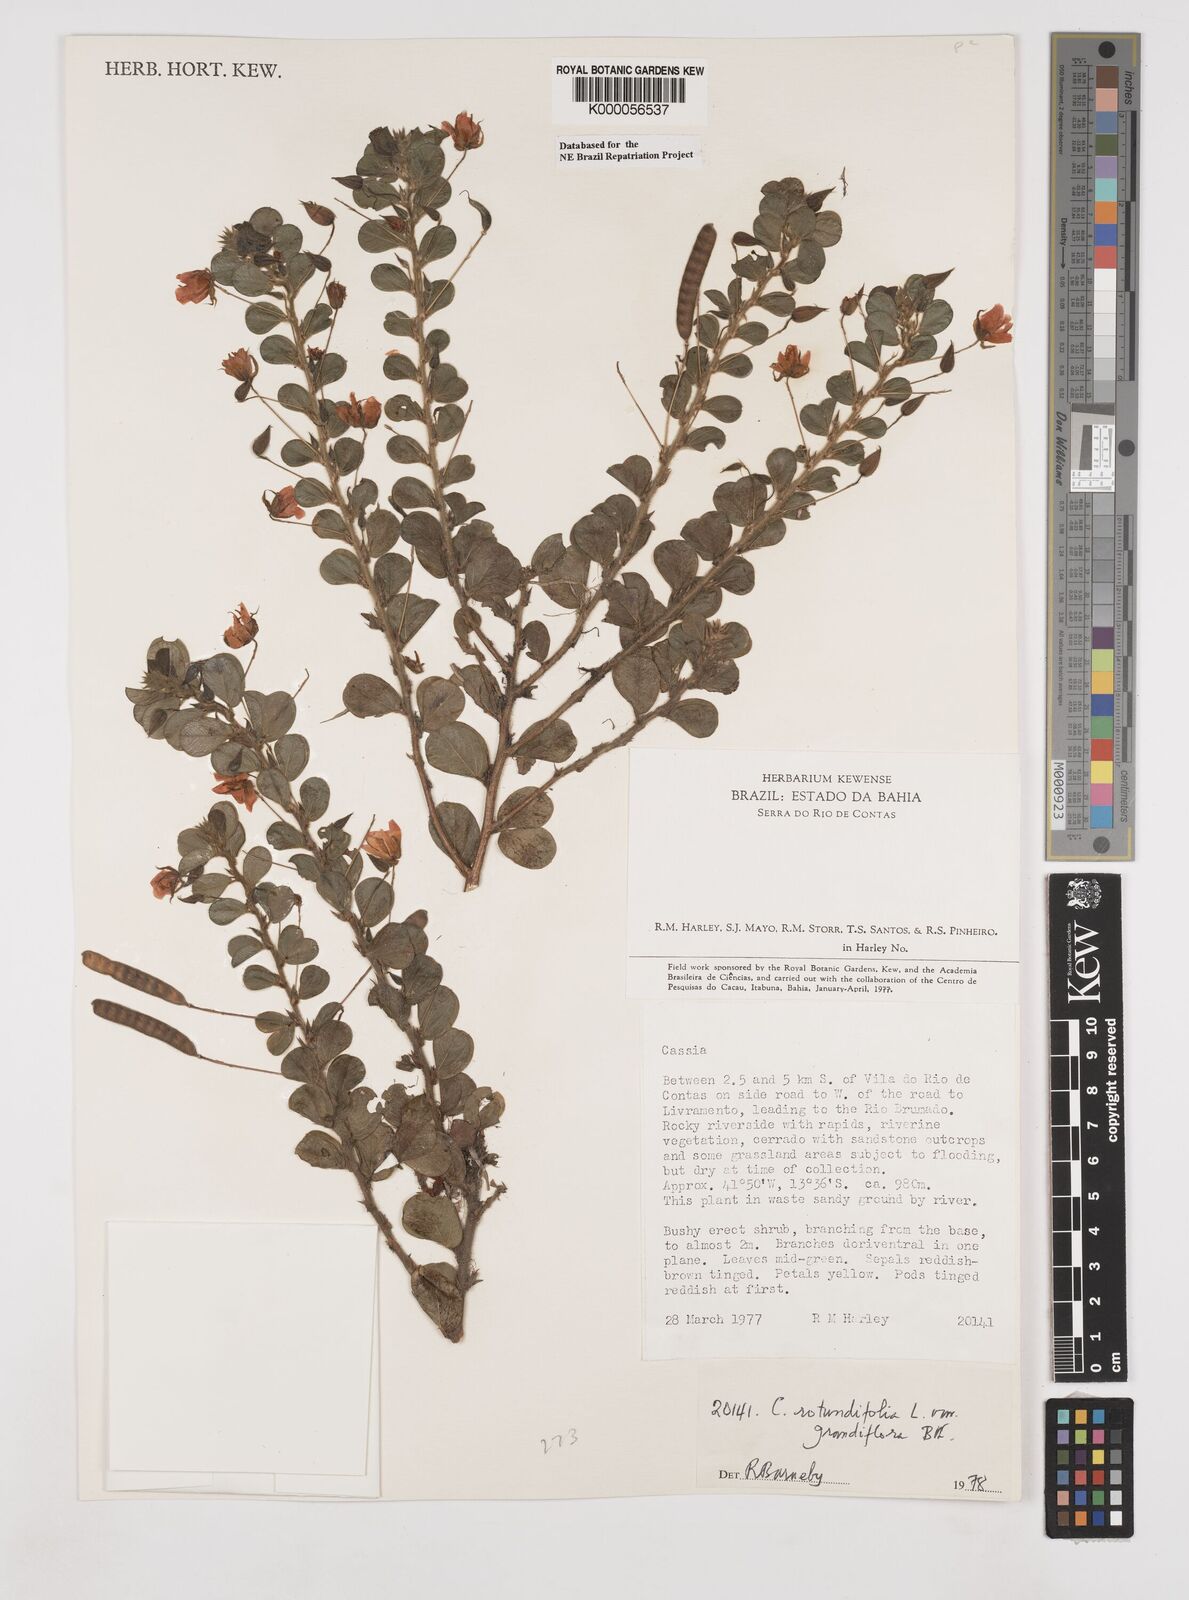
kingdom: Plantae
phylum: Tracheophyta
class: Magnoliopsida
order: Fabales
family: Fabaceae
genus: Chamaecrista
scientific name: Chamaecrista rotundifolia
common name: Round-leaf cassia
